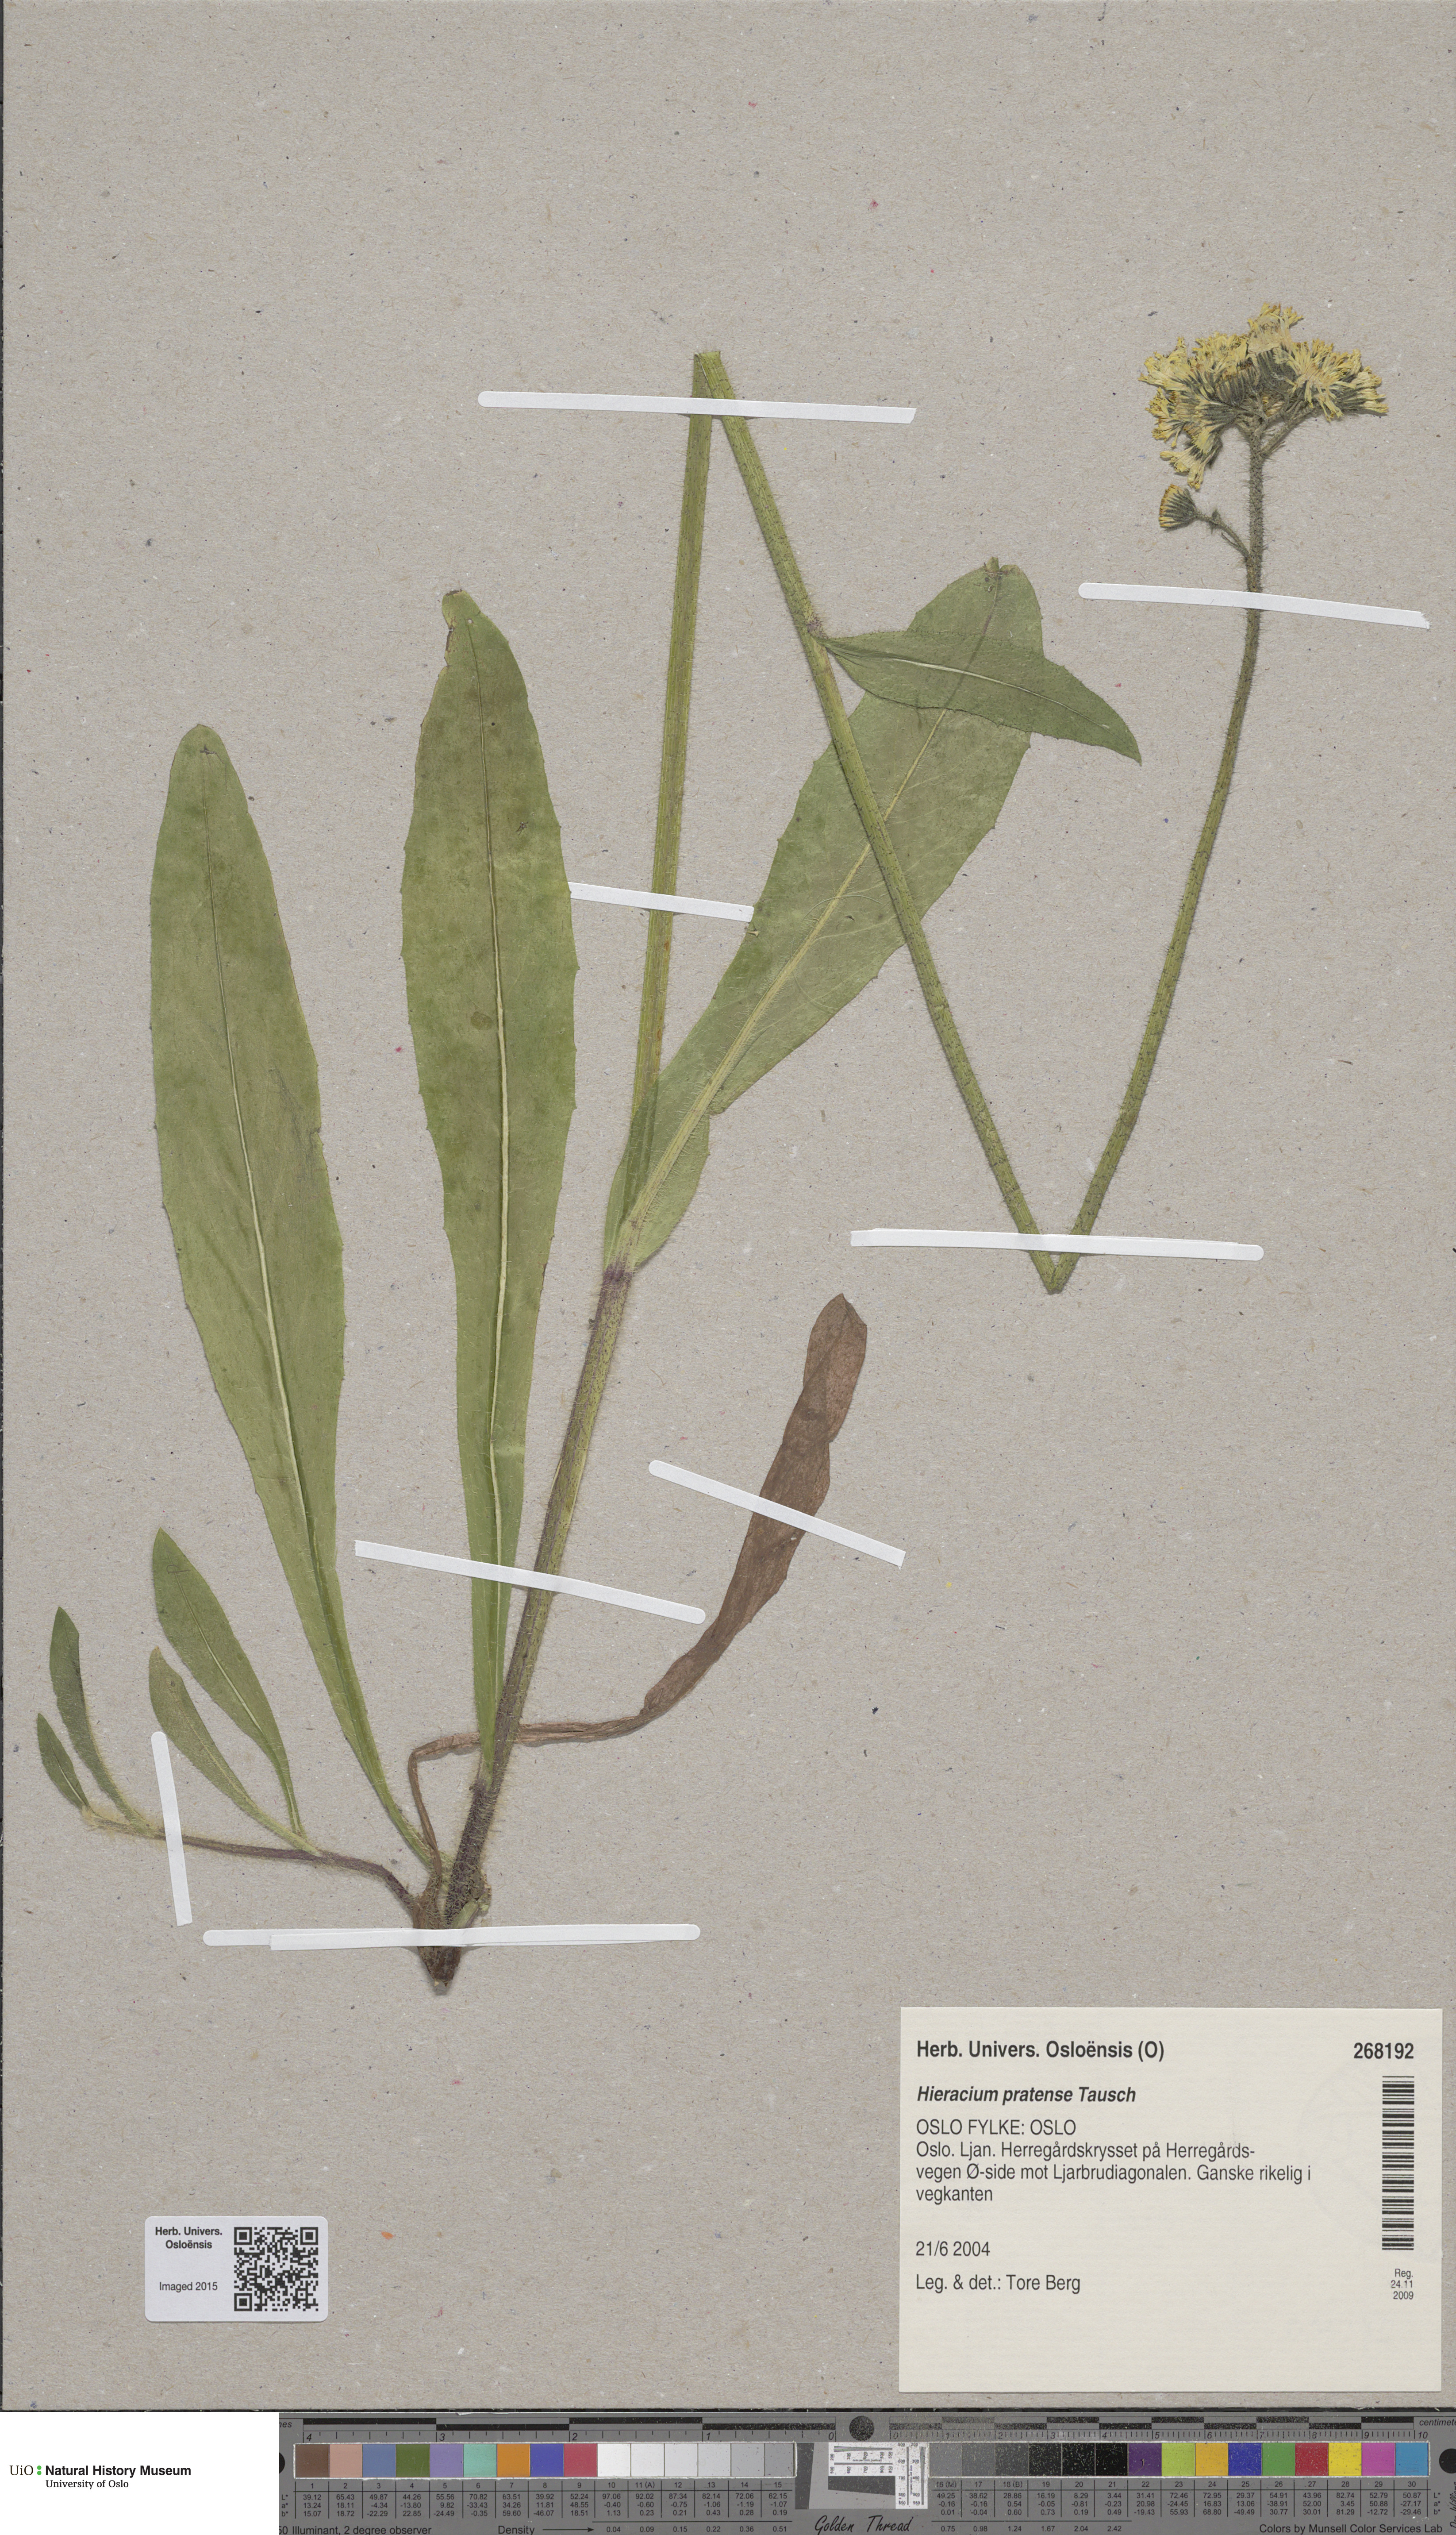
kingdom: Plantae
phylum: Tracheophyta
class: Magnoliopsida
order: Asterales
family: Asteraceae
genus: Pilosella
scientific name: Pilosella caespitosa
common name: Yellow fox-and-cubs
